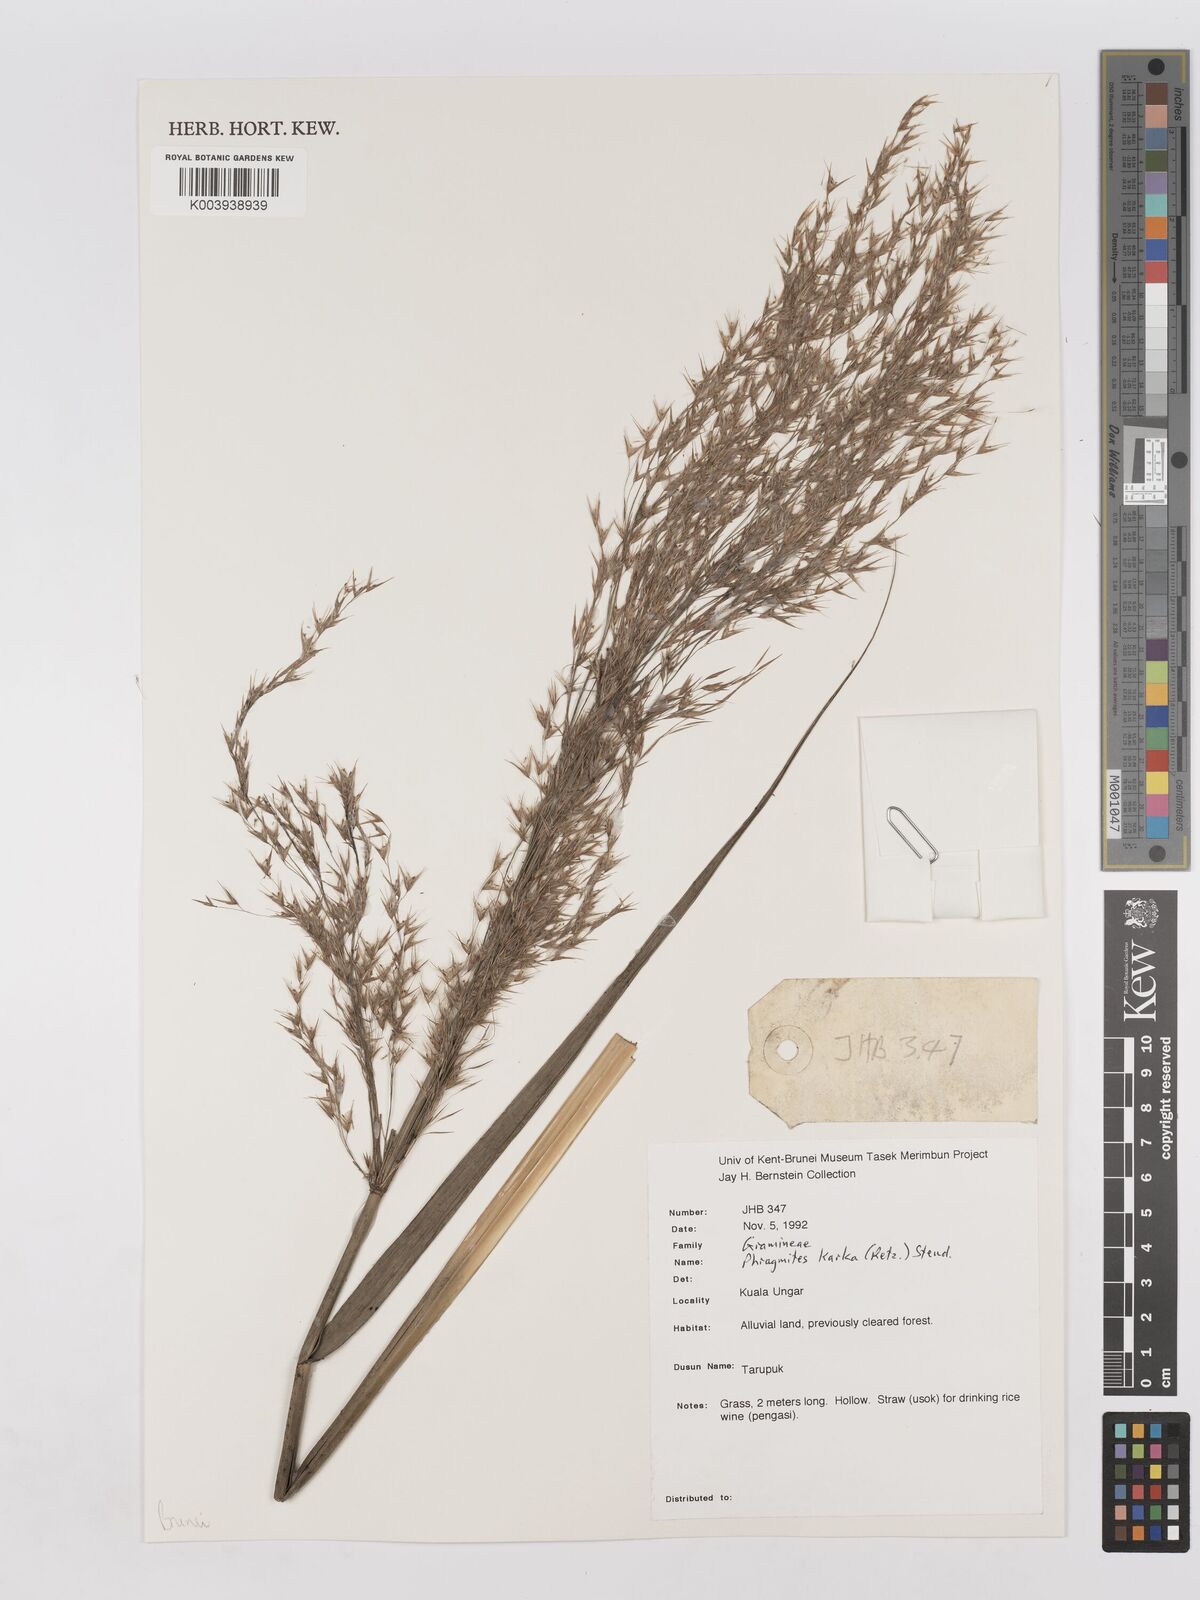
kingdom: Plantae
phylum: Tracheophyta
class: Liliopsida
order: Poales
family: Poaceae
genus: Phragmites
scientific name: Phragmites karka
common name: Tropical reed
